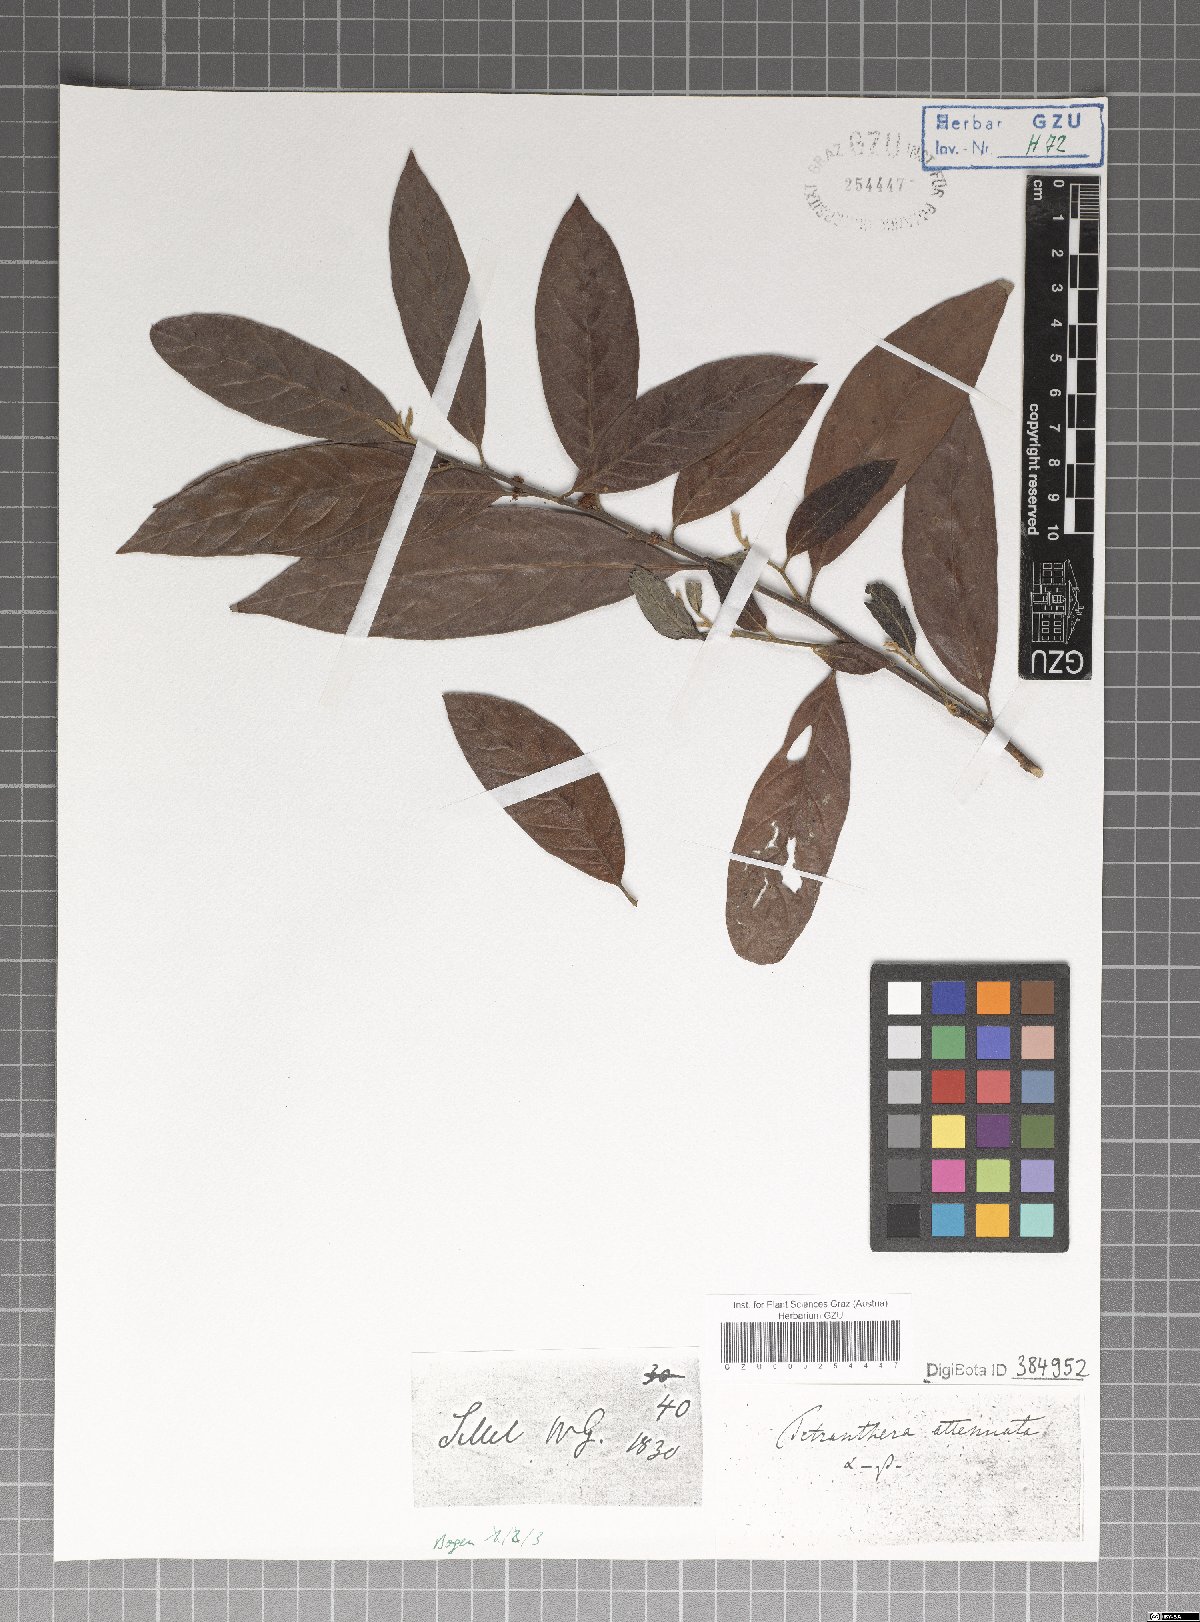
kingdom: Plantae
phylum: Tracheophyta
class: Magnoliopsida
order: Laurales
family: Lauraceae
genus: Litsea
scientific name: Litsea salicifolia
